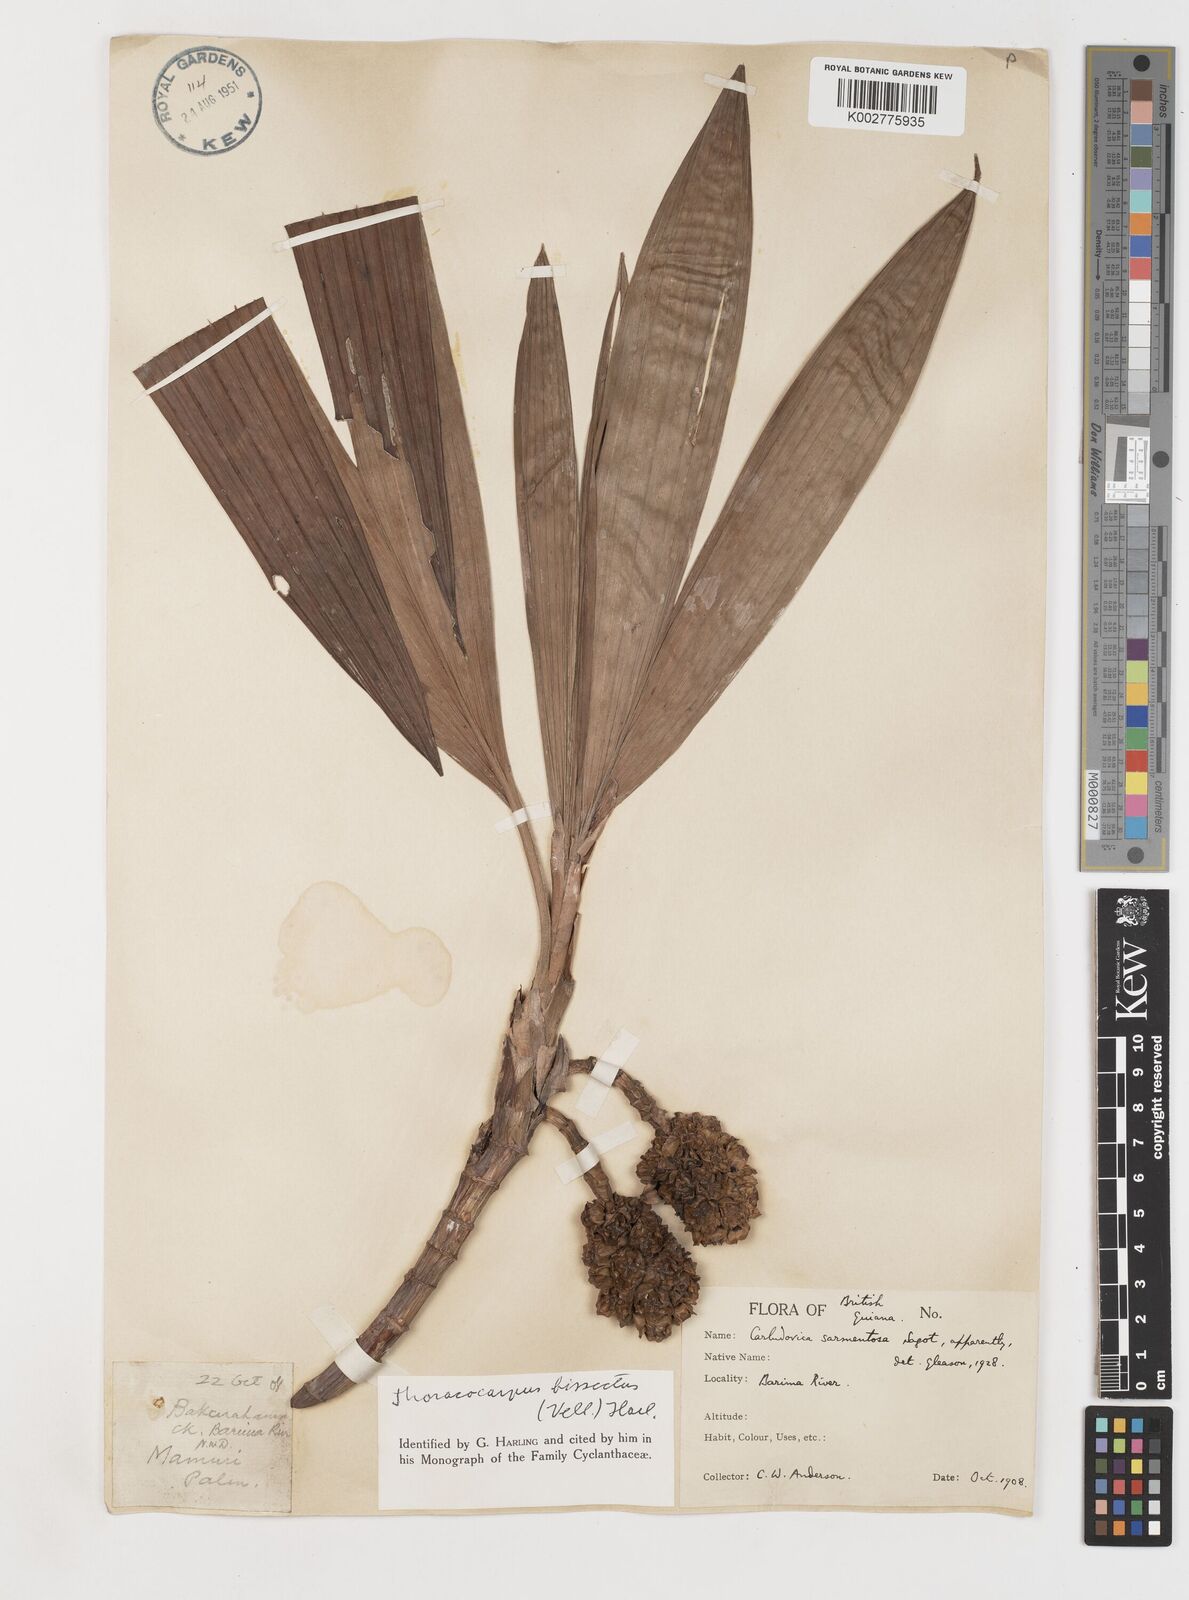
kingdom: Plantae
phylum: Tracheophyta
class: Liliopsida
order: Pandanales
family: Cyclanthaceae
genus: Thoracocarpus
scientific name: Thoracocarpus bissectus
